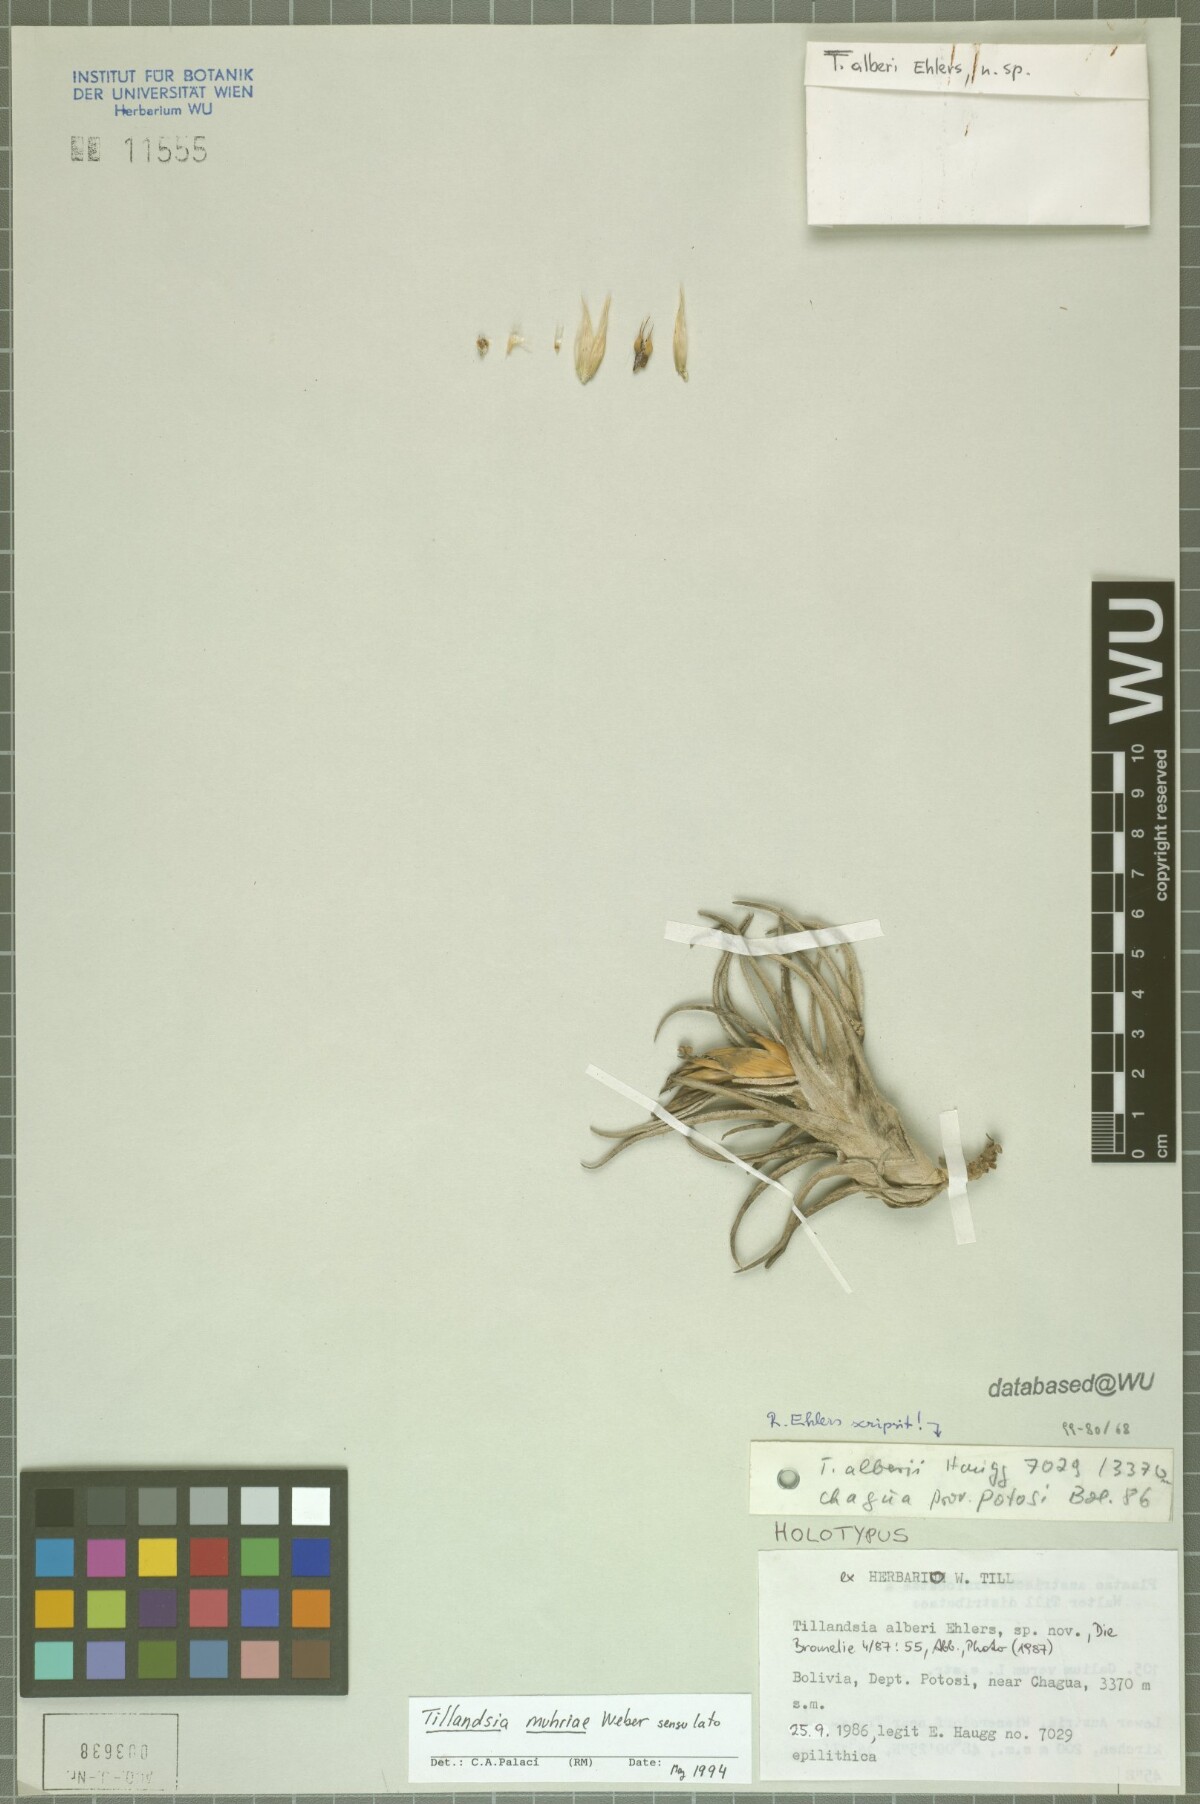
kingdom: Plantae
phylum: Tracheophyta
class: Liliopsida
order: Poales
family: Bromeliaceae
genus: Tillandsia
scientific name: Tillandsia muhriae
